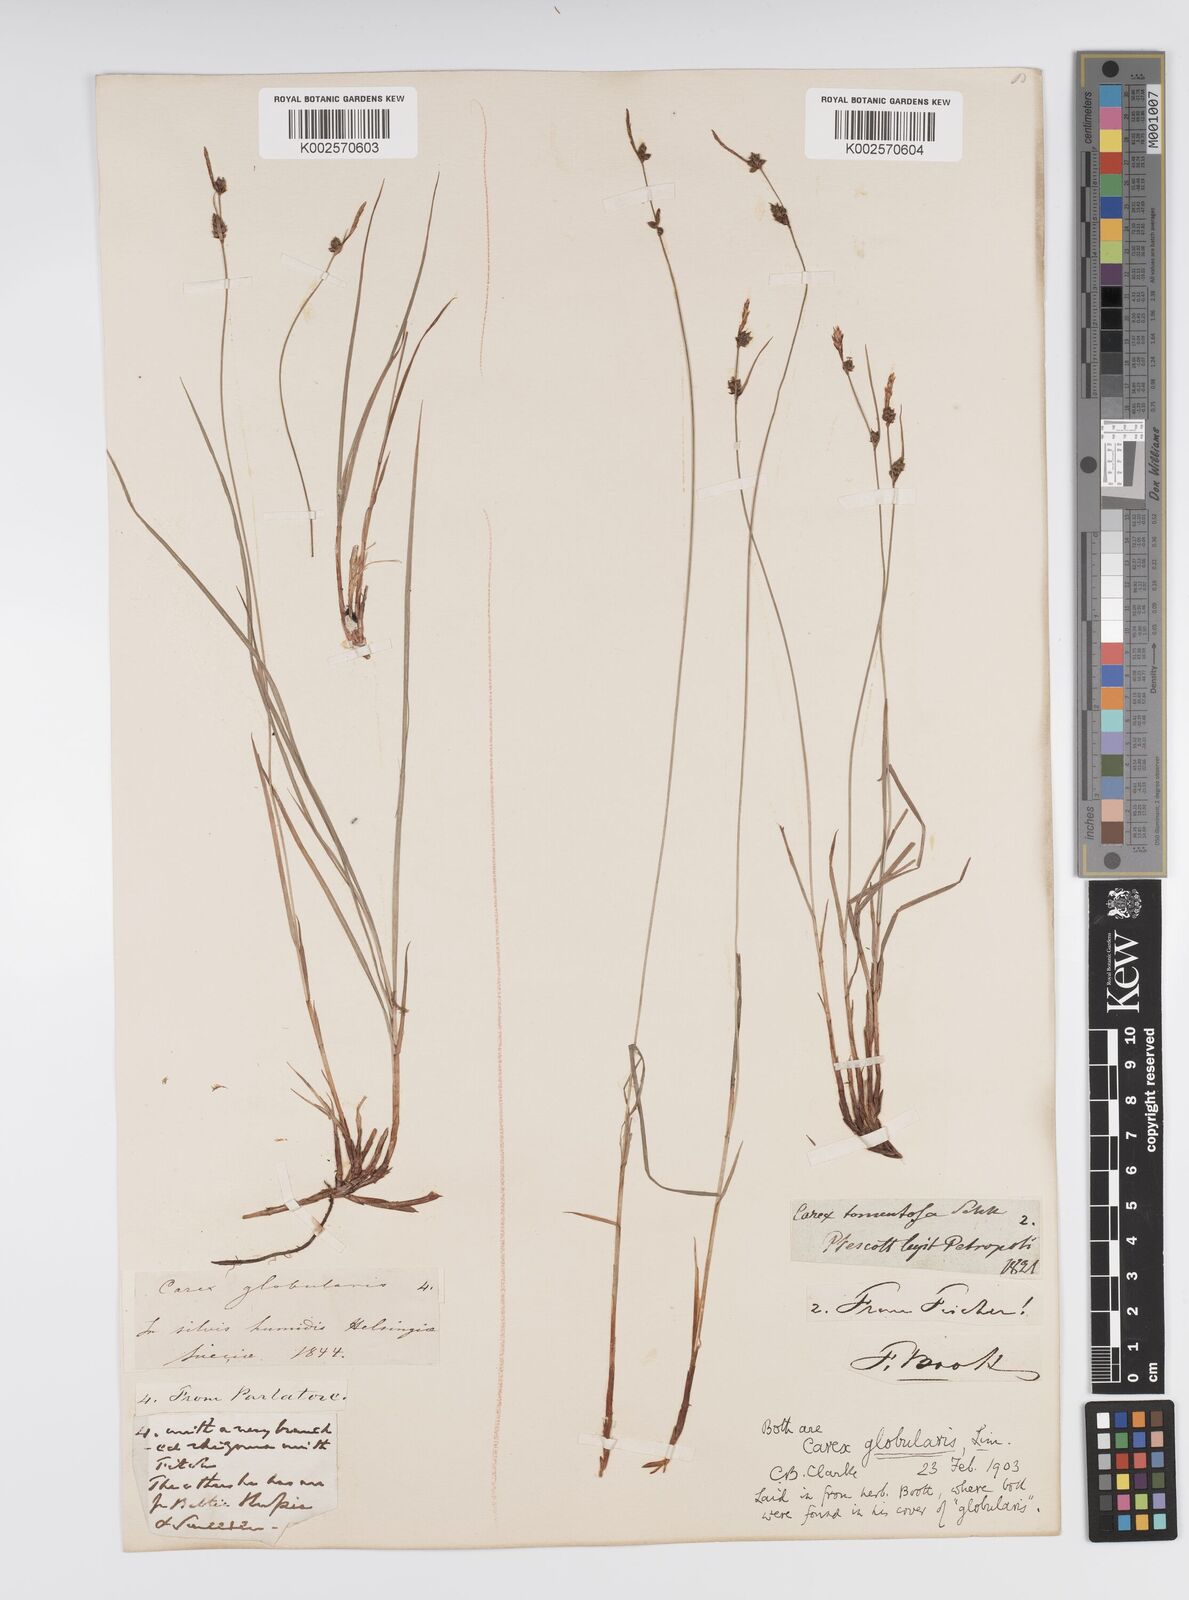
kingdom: Plantae
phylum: Tracheophyta
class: Liliopsida
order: Poales
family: Cyperaceae
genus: Carex
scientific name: Carex globularis
